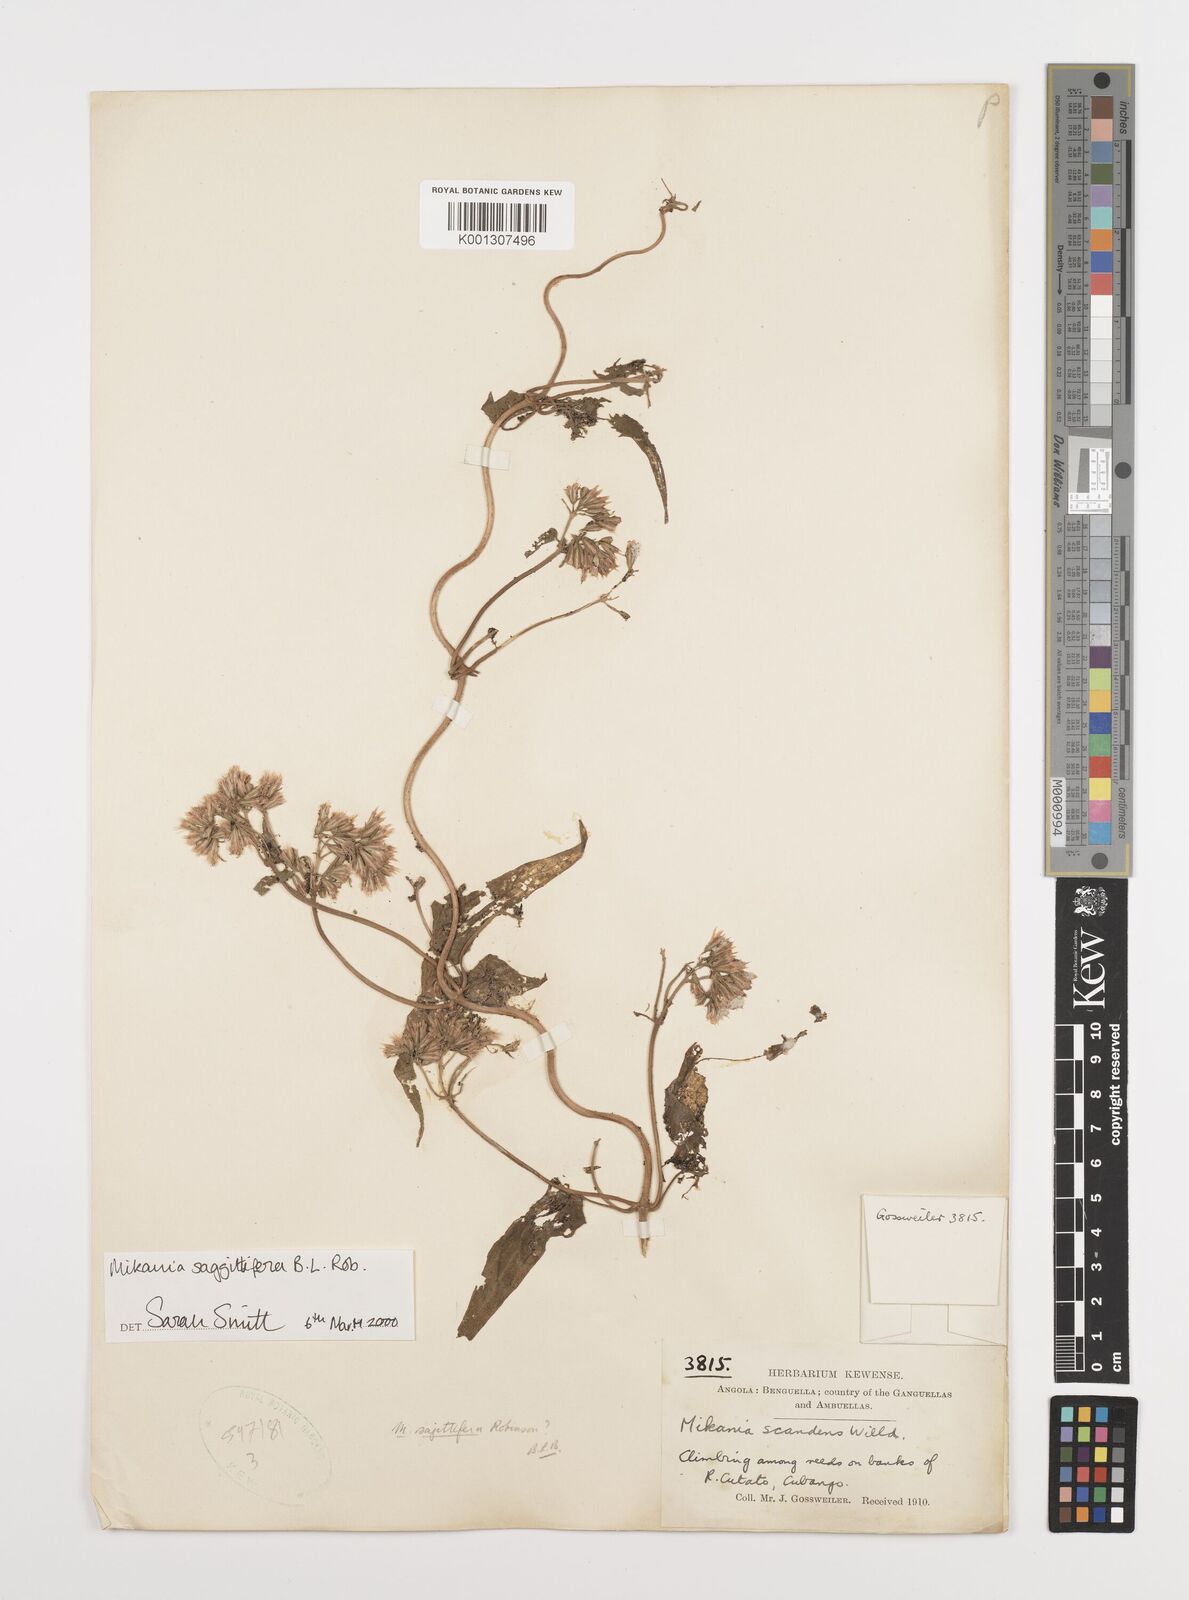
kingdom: Plantae
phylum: Tracheophyta
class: Magnoliopsida
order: Asterales
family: Asteraceae
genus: Mikania
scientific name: Mikania sagittifera
